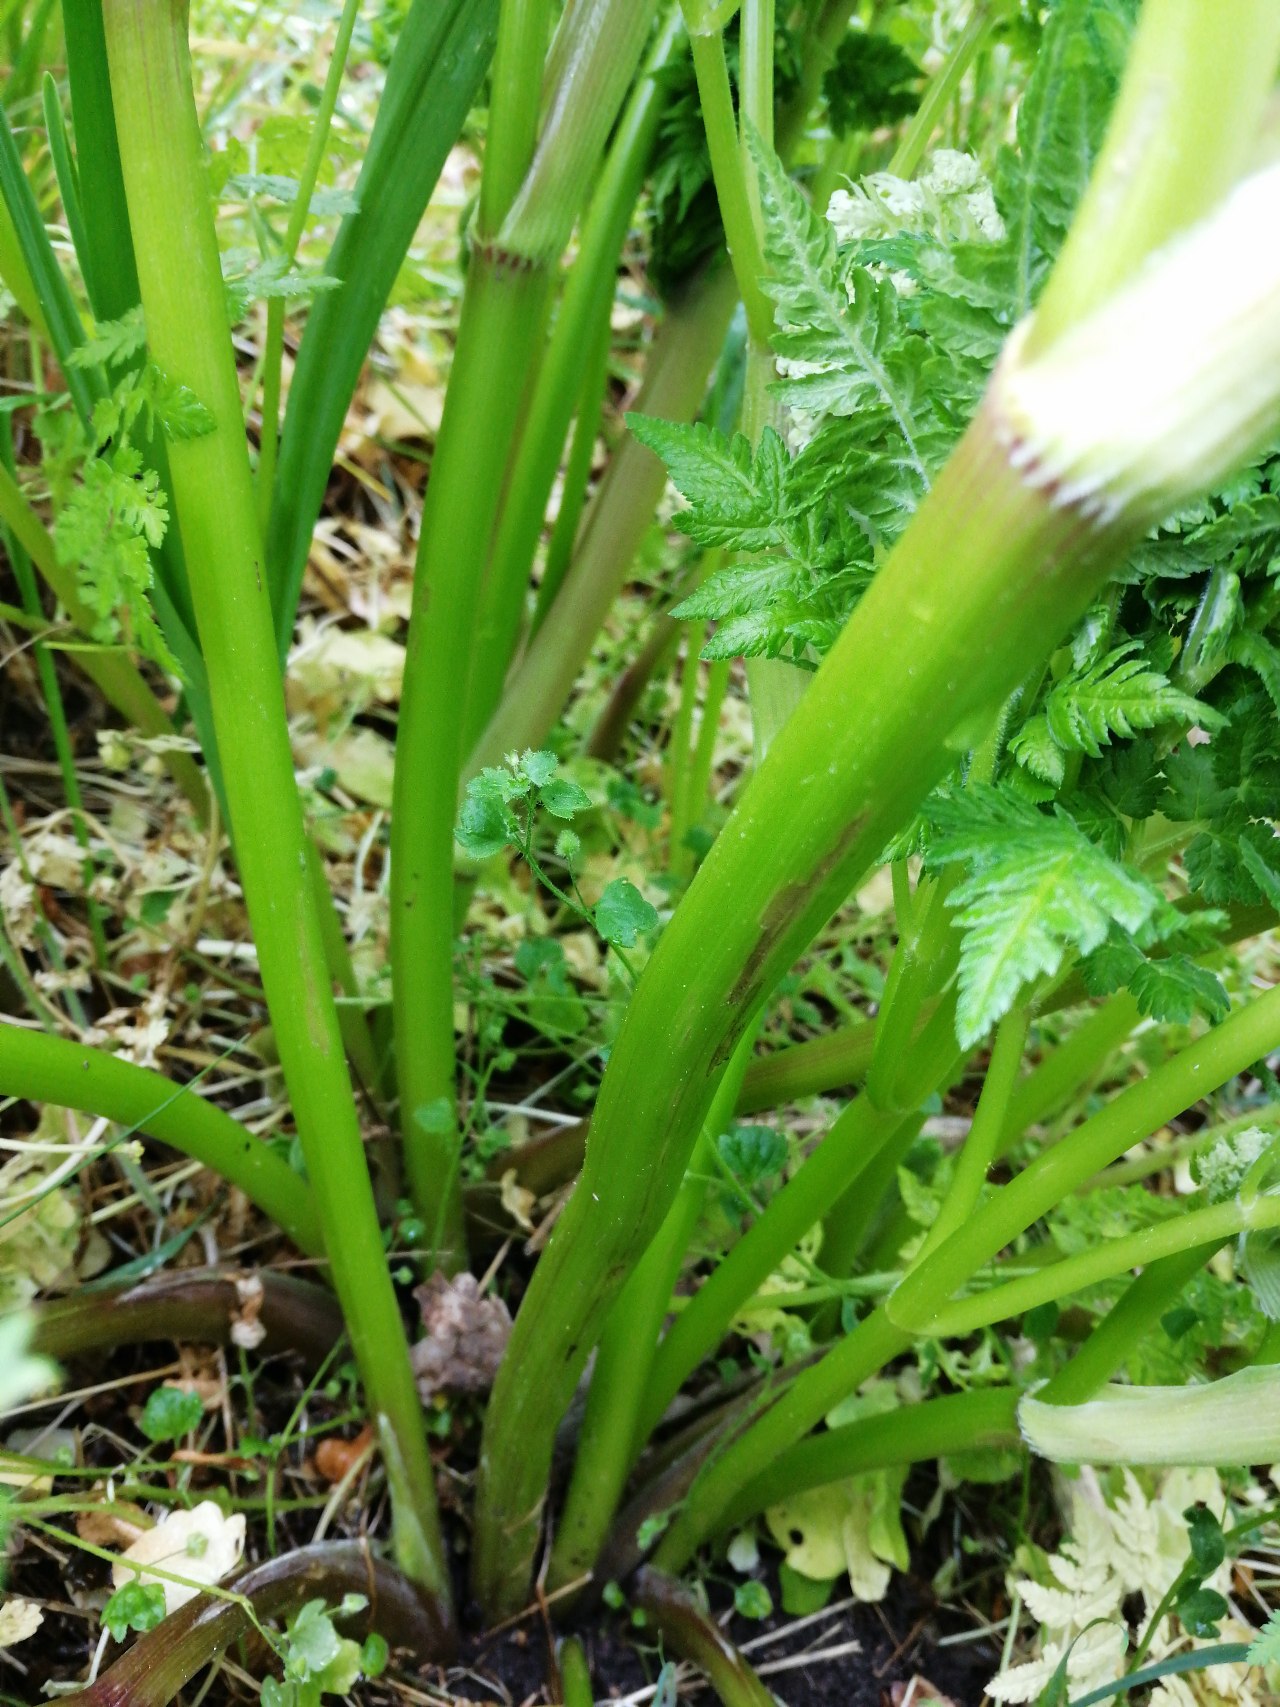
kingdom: Plantae
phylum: Tracheophyta
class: Magnoliopsida
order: Apiales
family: Apiaceae
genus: Myrrhis
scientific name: Myrrhis odorata
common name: Sødskærm
